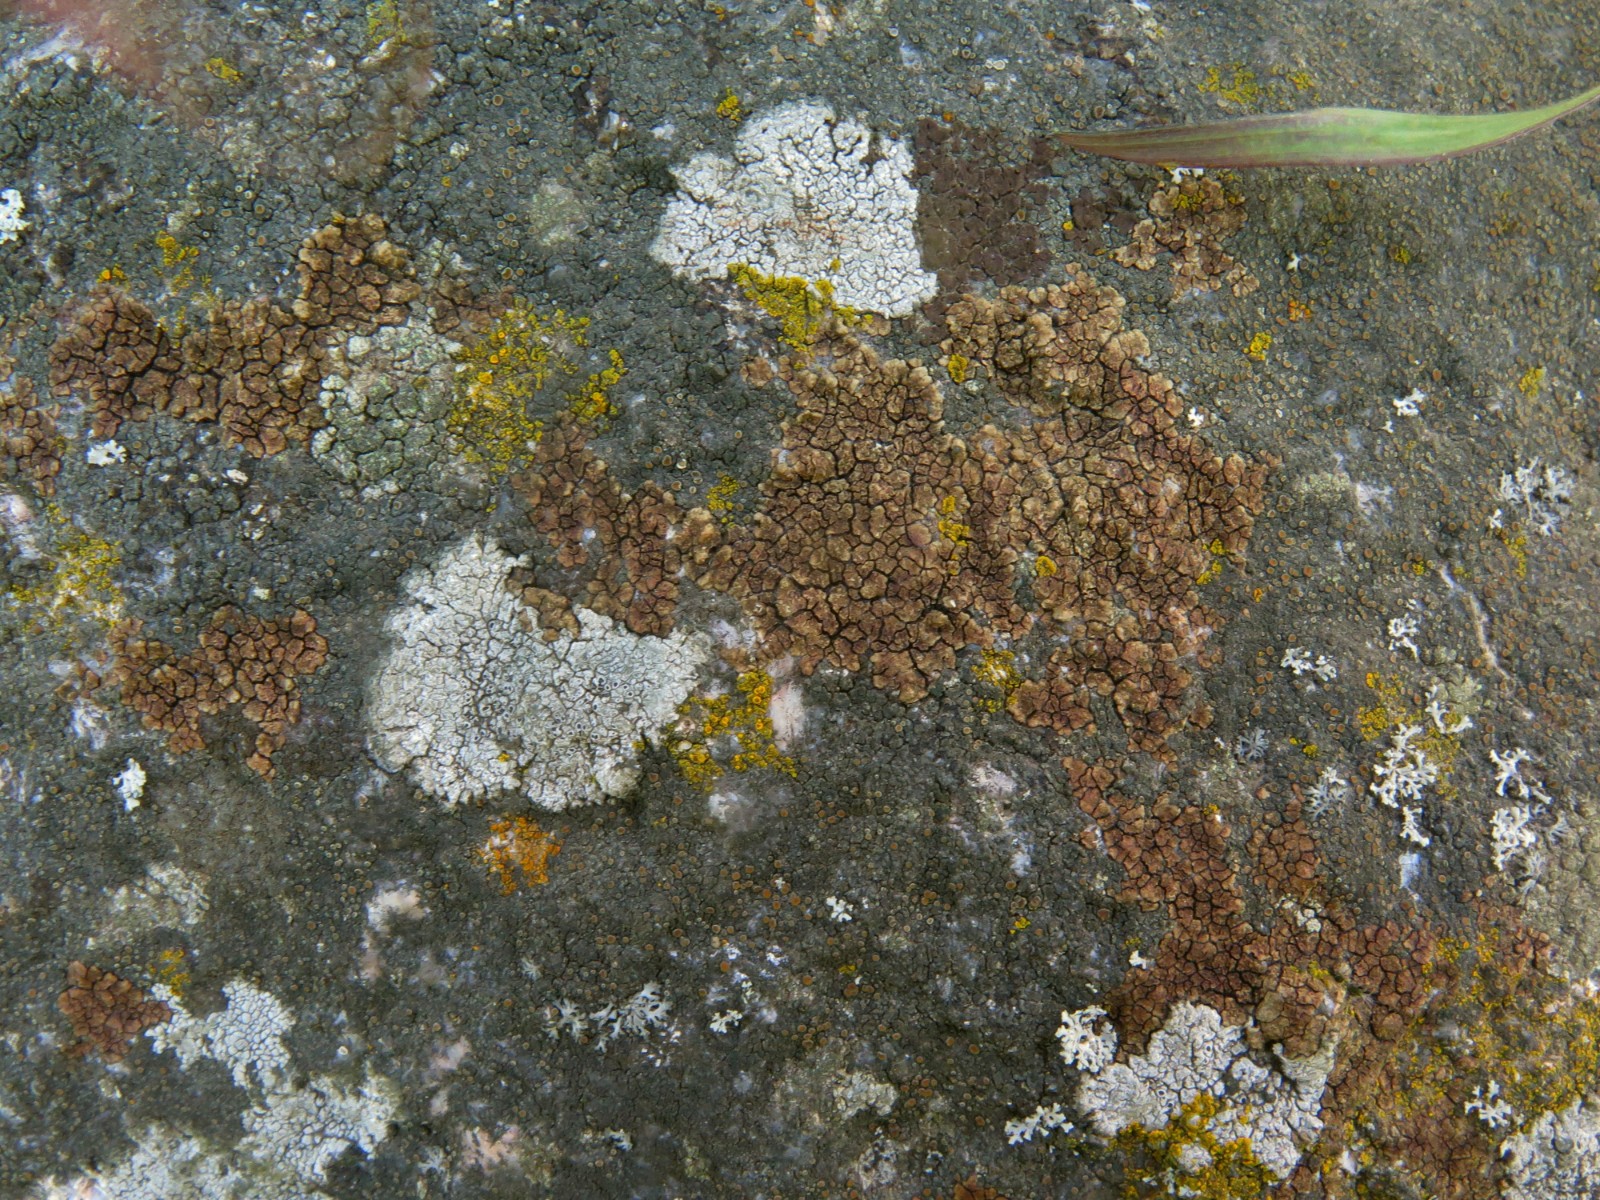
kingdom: Fungi
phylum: Ascomycota
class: Lecanoromycetes
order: Acarosporales
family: Acarosporaceae
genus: Acarospora
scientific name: Acarospora fuscata
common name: brun småsporelav
